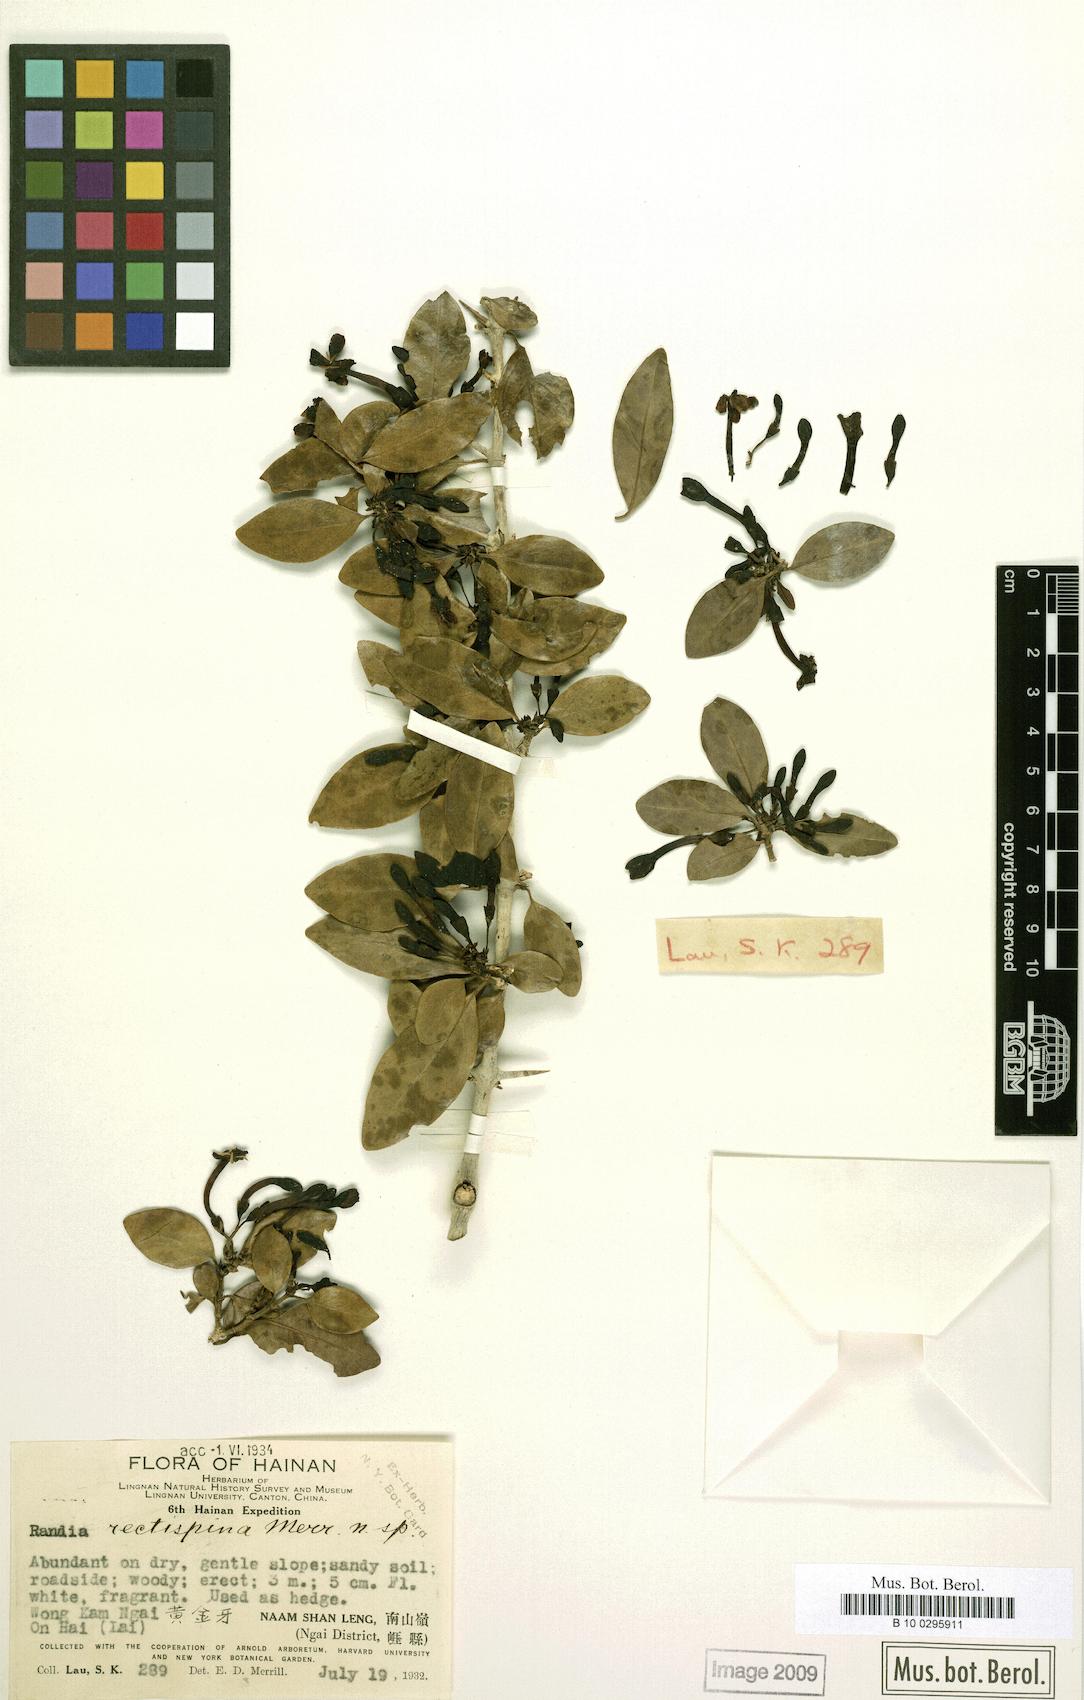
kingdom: Plantae
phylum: Tracheophyta
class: Magnoliopsida
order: Gentianales
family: Rubiaceae
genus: Benkara
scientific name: Benkara rectispina
